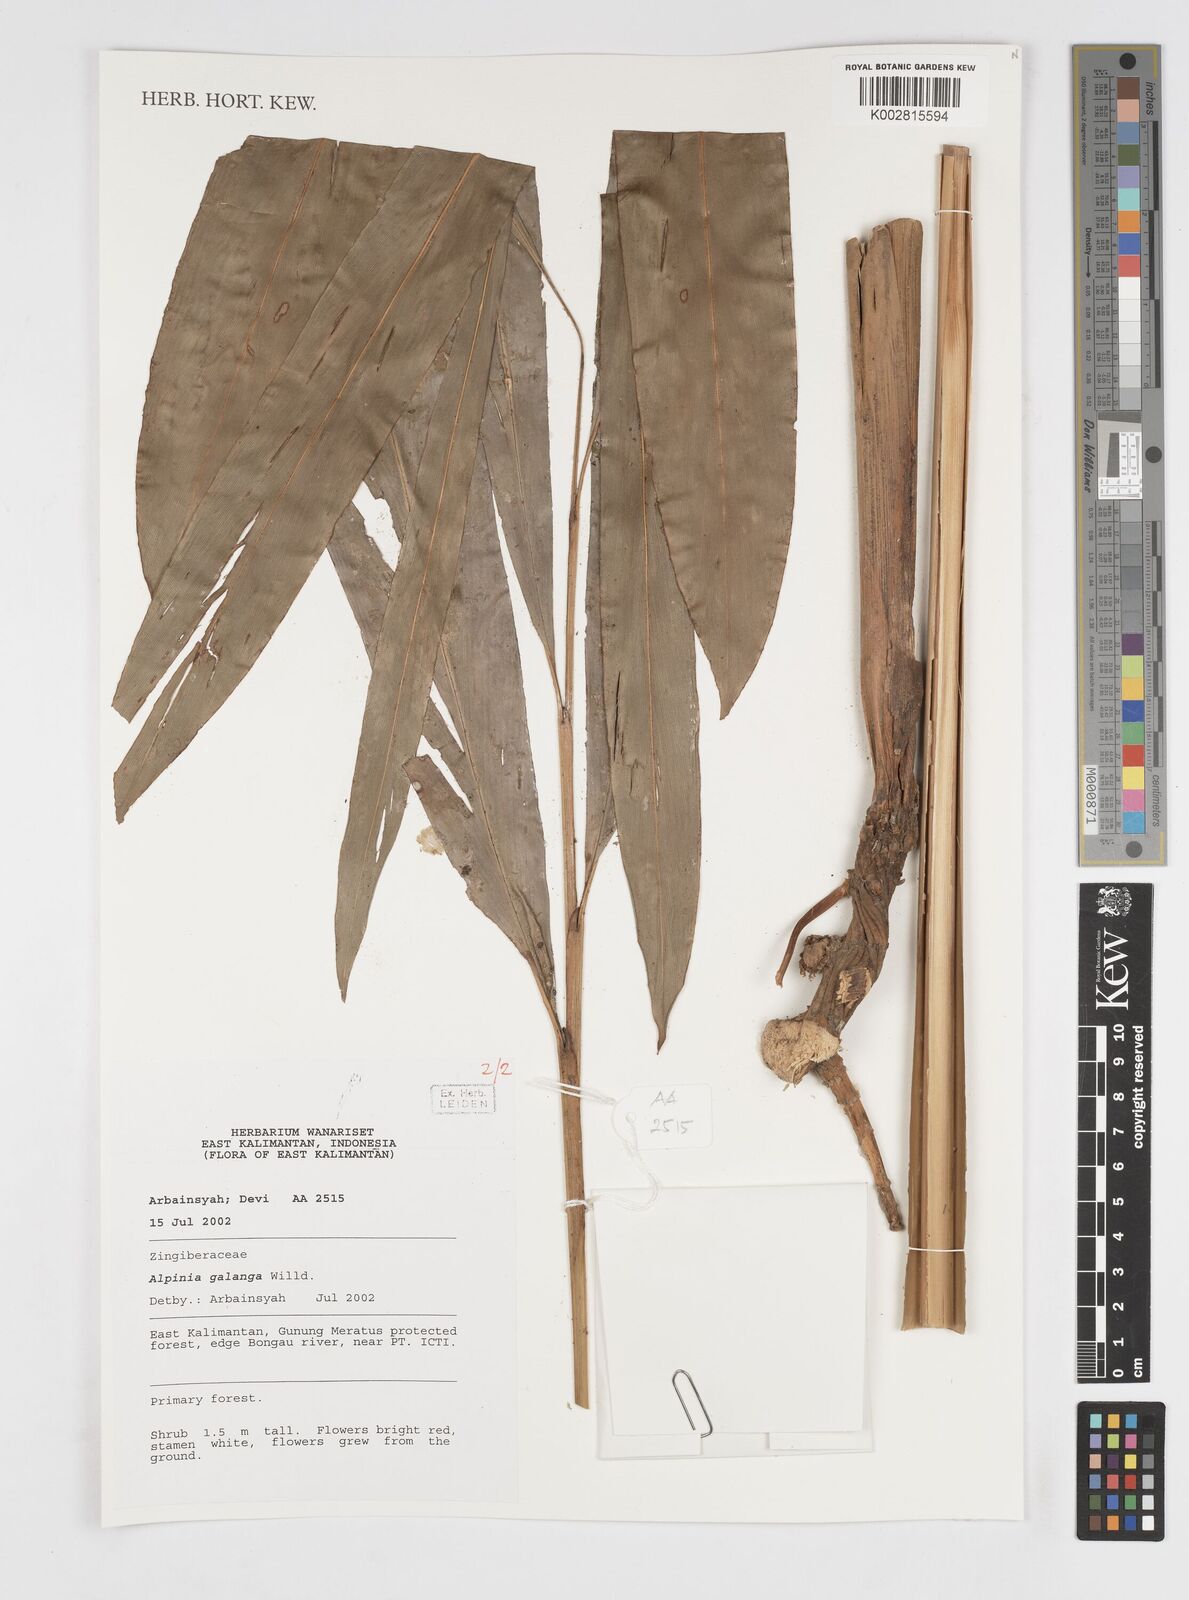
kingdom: Plantae
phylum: Tracheophyta
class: Liliopsida
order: Zingiberales
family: Zingiberaceae
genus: Alpinia
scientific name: Alpinia galanga
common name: Siamese-ginger
